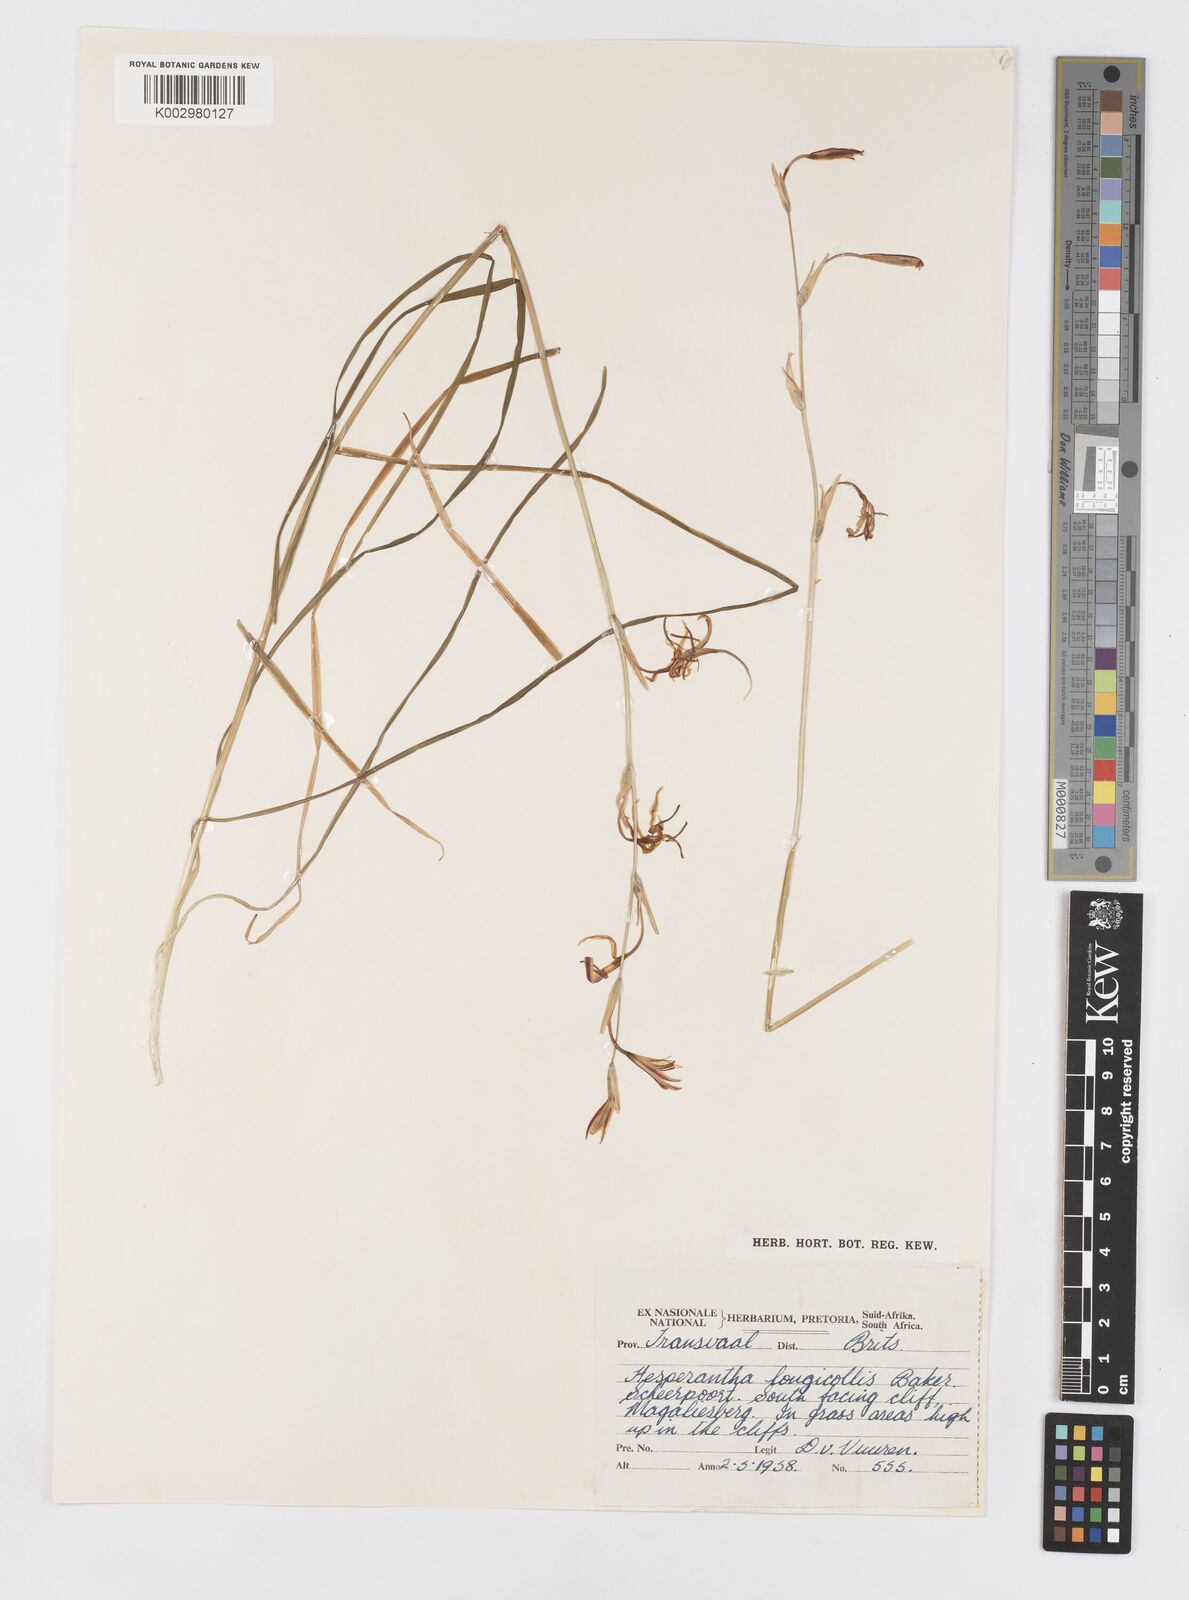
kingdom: Plantae
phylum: Tracheophyta
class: Liliopsida
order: Asparagales
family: Iridaceae
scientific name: Iridaceae
